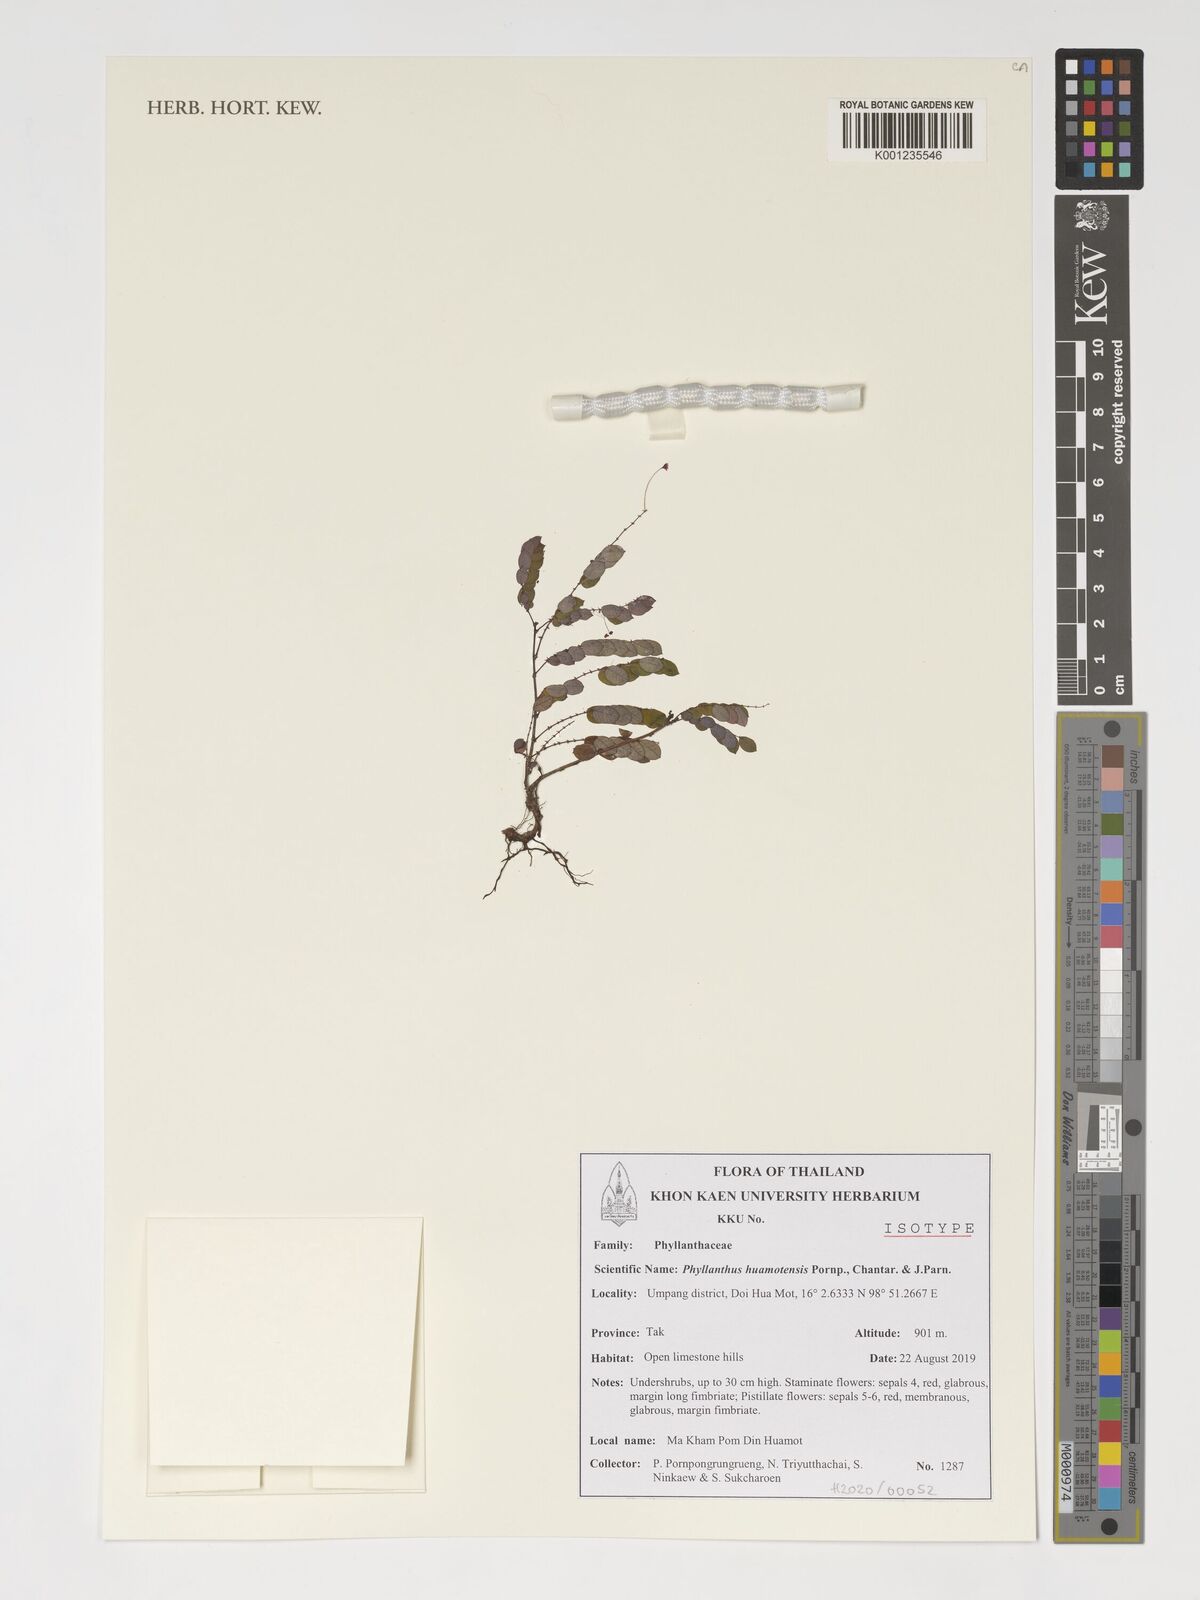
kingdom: Plantae
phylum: Tracheophyta
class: Magnoliopsida
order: Malpighiales
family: Phyllanthaceae
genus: Phyllanthus
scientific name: Phyllanthus huamotensis
